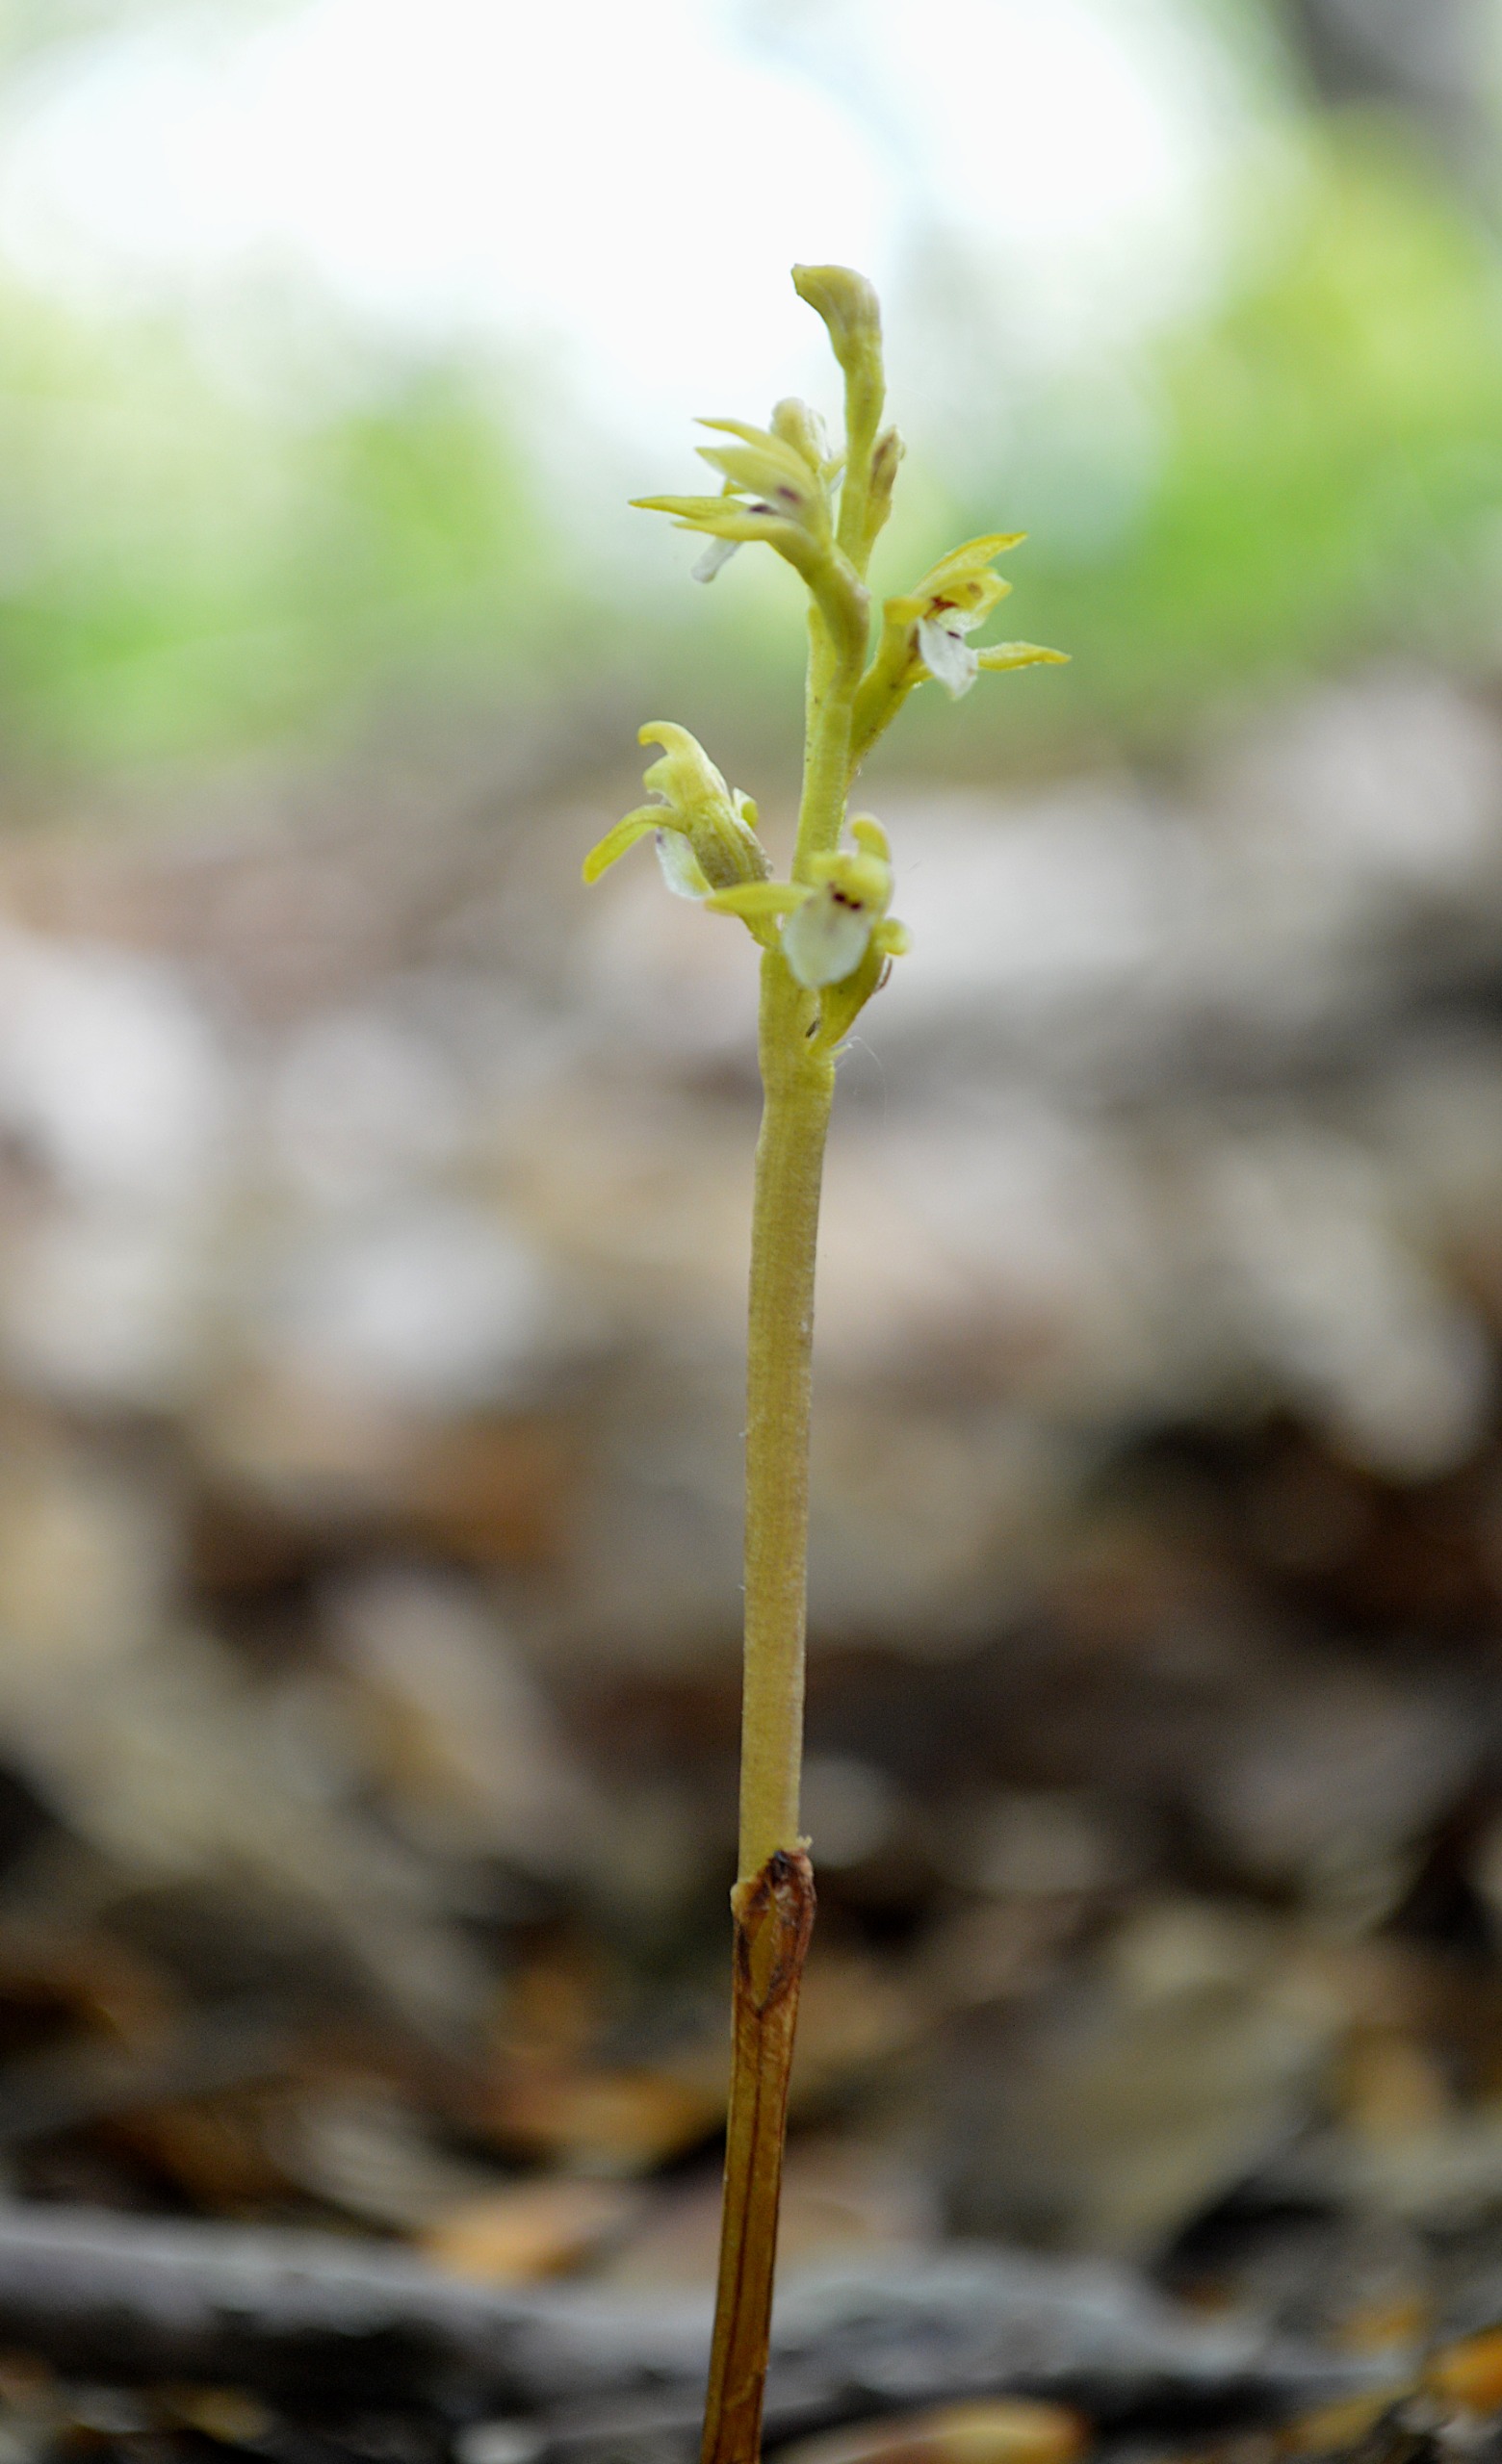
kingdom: Plantae
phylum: Tracheophyta
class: Liliopsida
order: Asparagales
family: Orchidaceae
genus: Corallorhiza
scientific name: Corallorhiza trifida
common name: Koralrod
